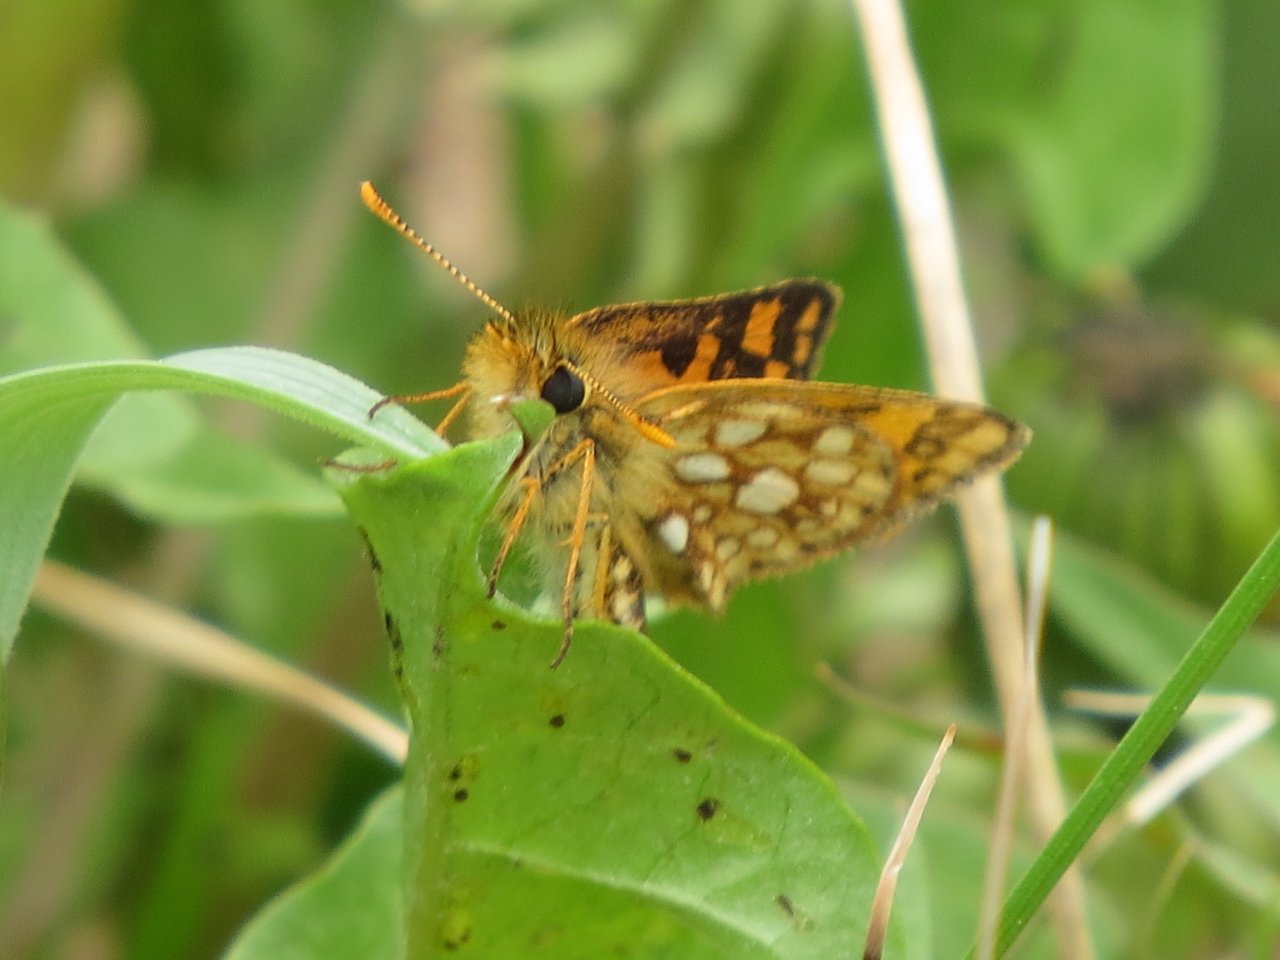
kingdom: Animalia
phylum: Arthropoda
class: Insecta
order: Lepidoptera
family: Hesperiidae
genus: Carterocephalus
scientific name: Carterocephalus palaemon
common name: Chequered Skipper
